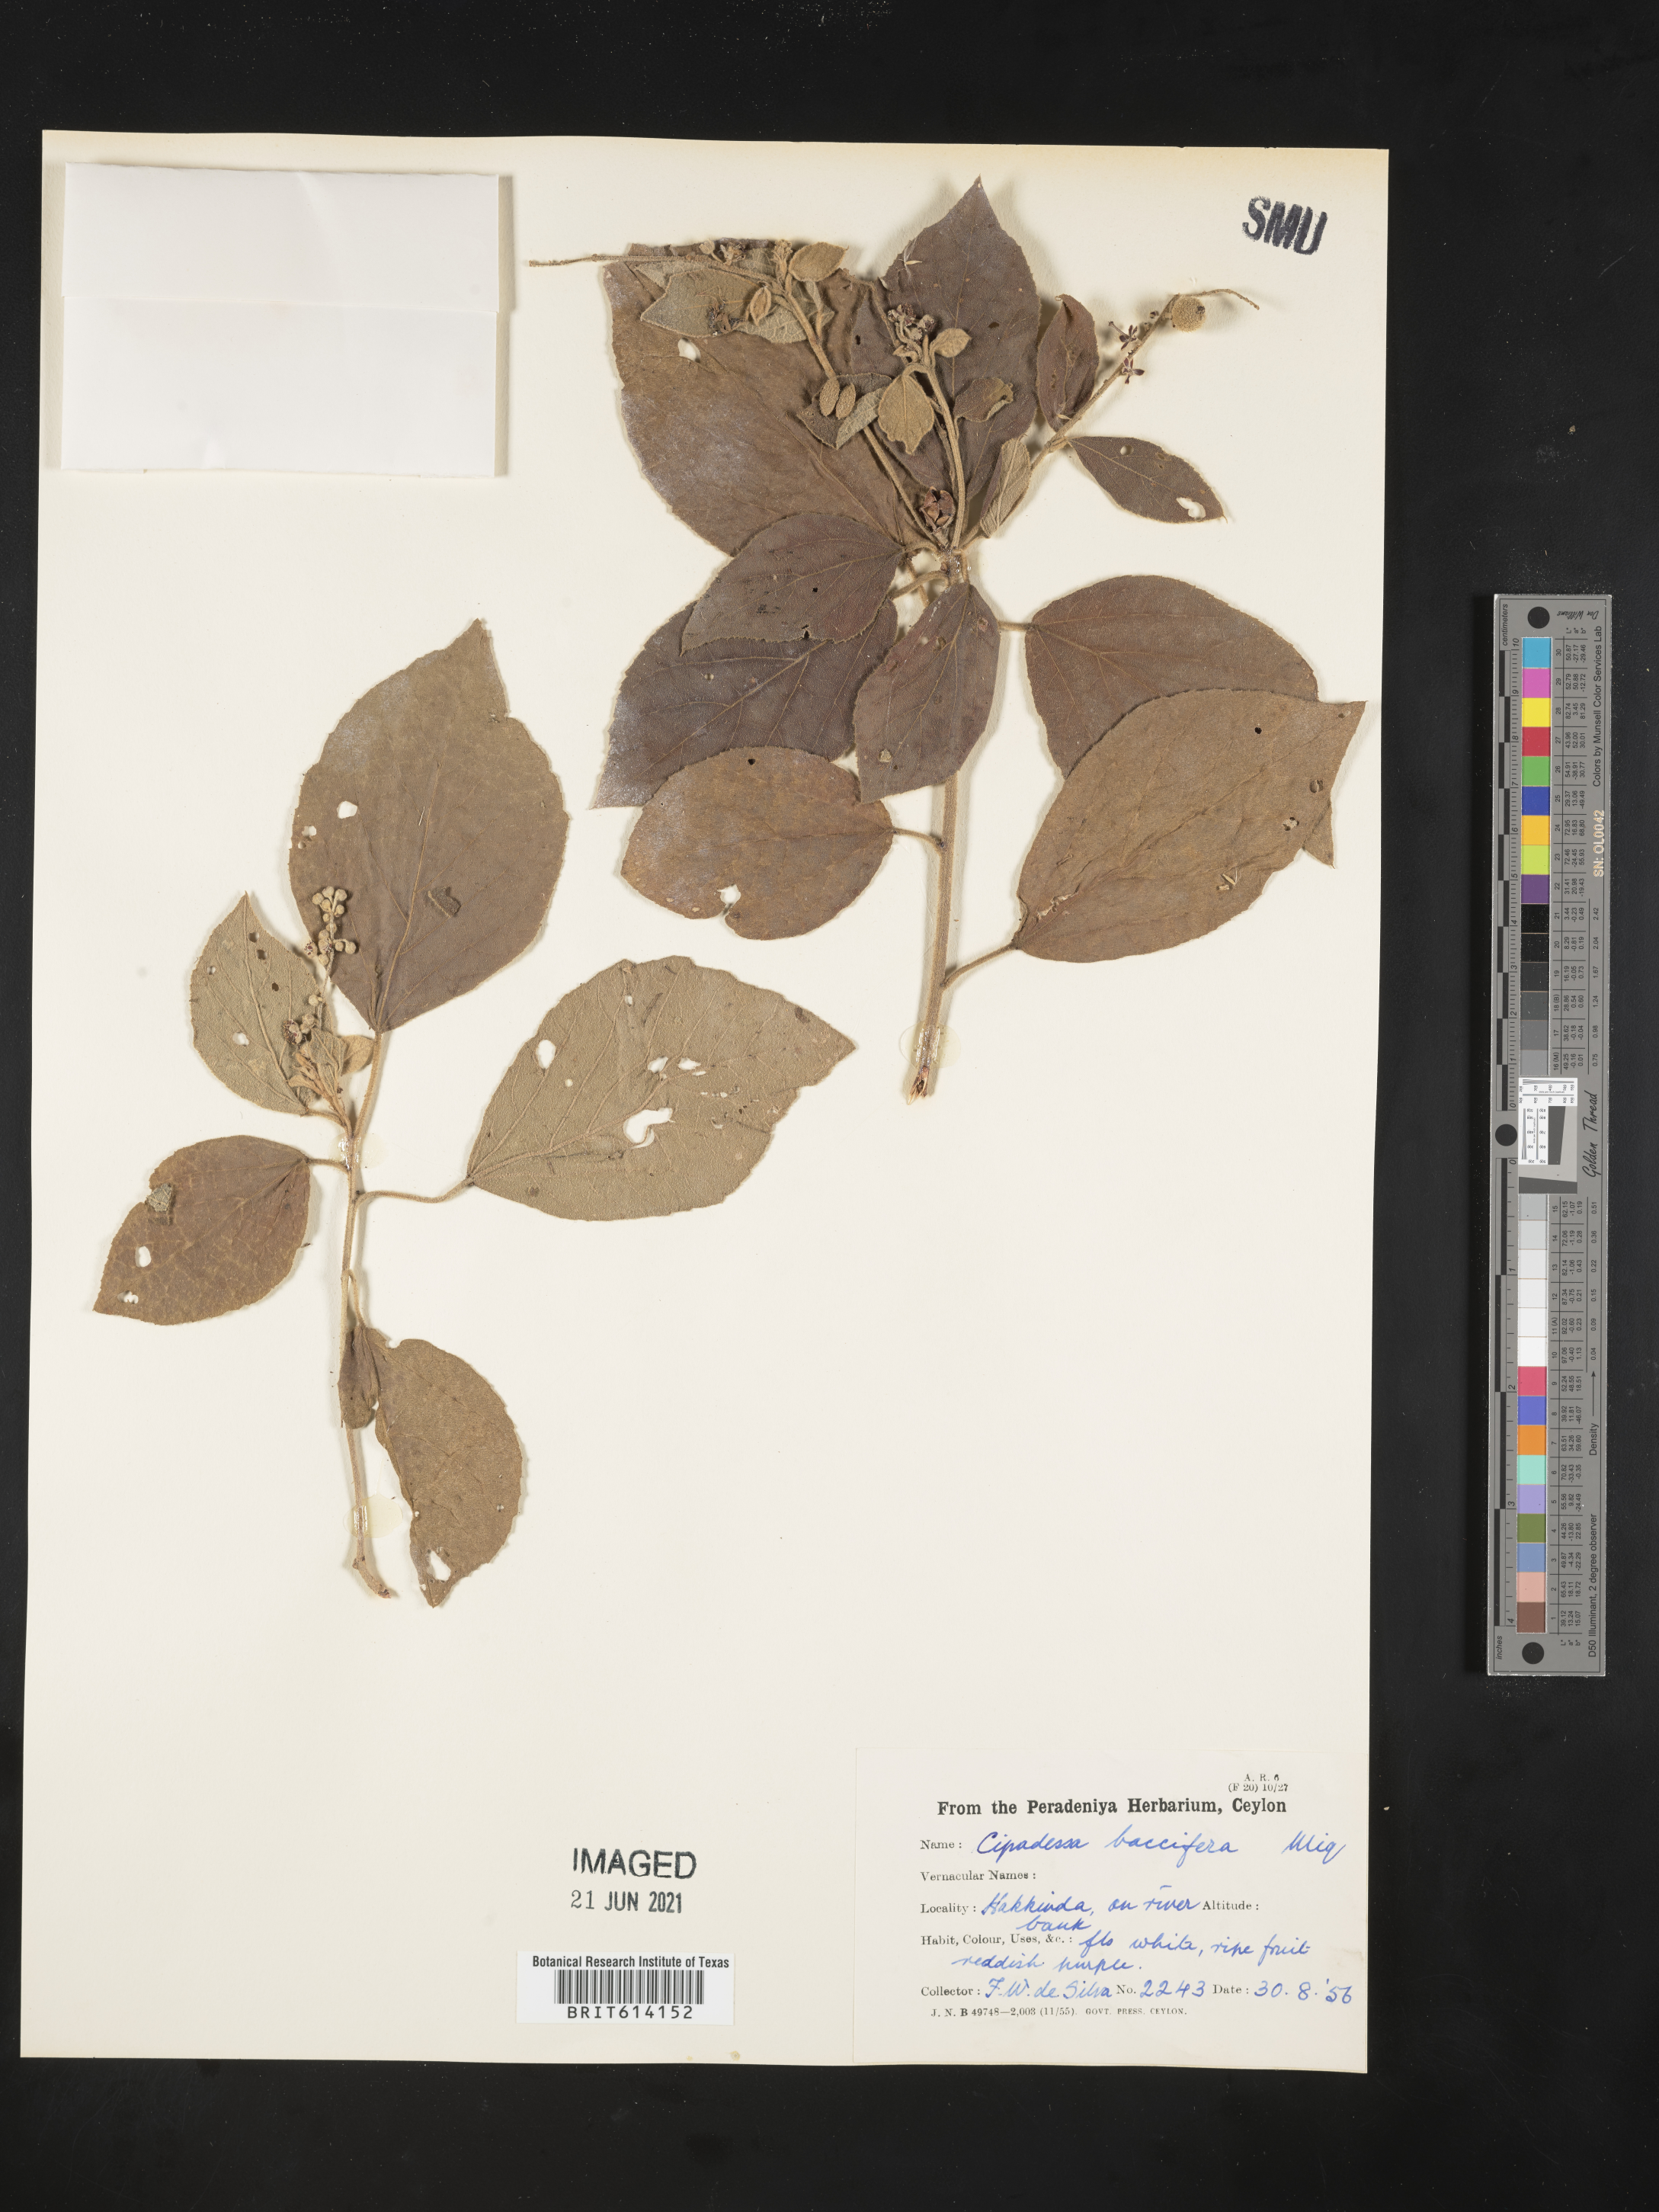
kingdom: Plantae
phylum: Tracheophyta
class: Magnoliopsida
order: Sapindales
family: Meliaceae
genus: Cipadessa
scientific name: Cipadessa baccifera
